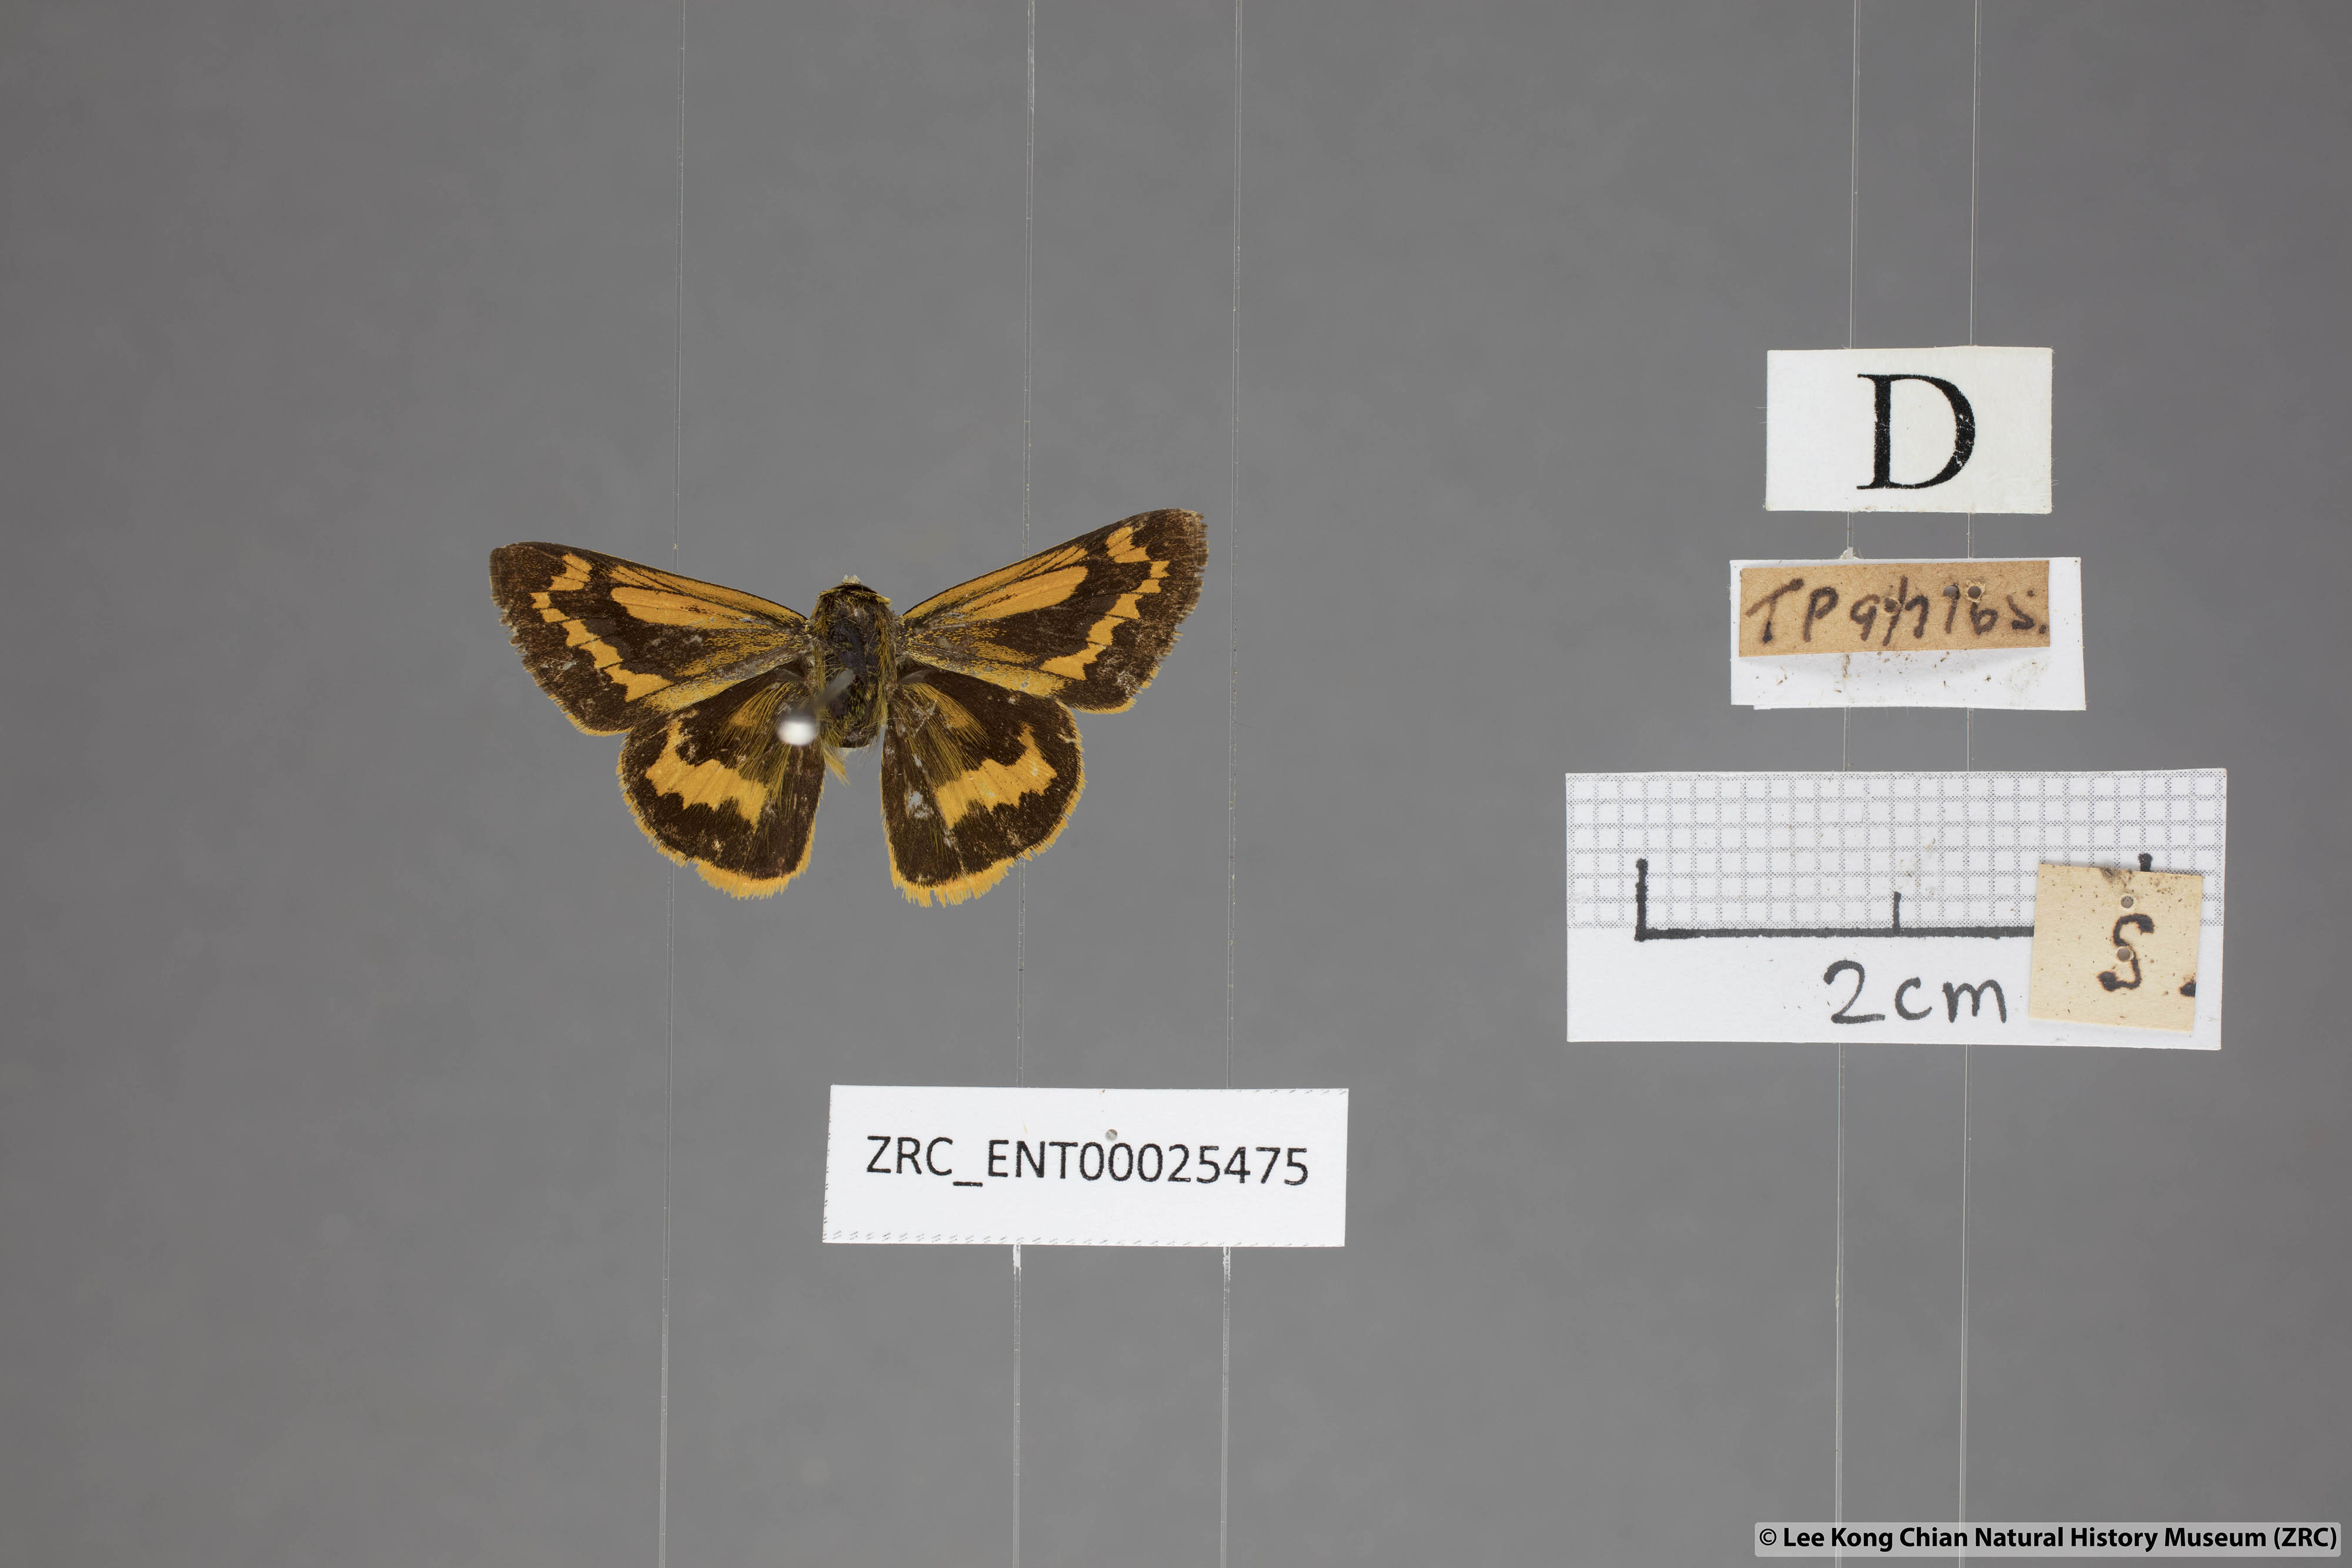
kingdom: Animalia
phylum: Arthropoda
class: Insecta
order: Lepidoptera
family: Hesperiidae
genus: Potanthus
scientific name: Potanthus rectifasciata
